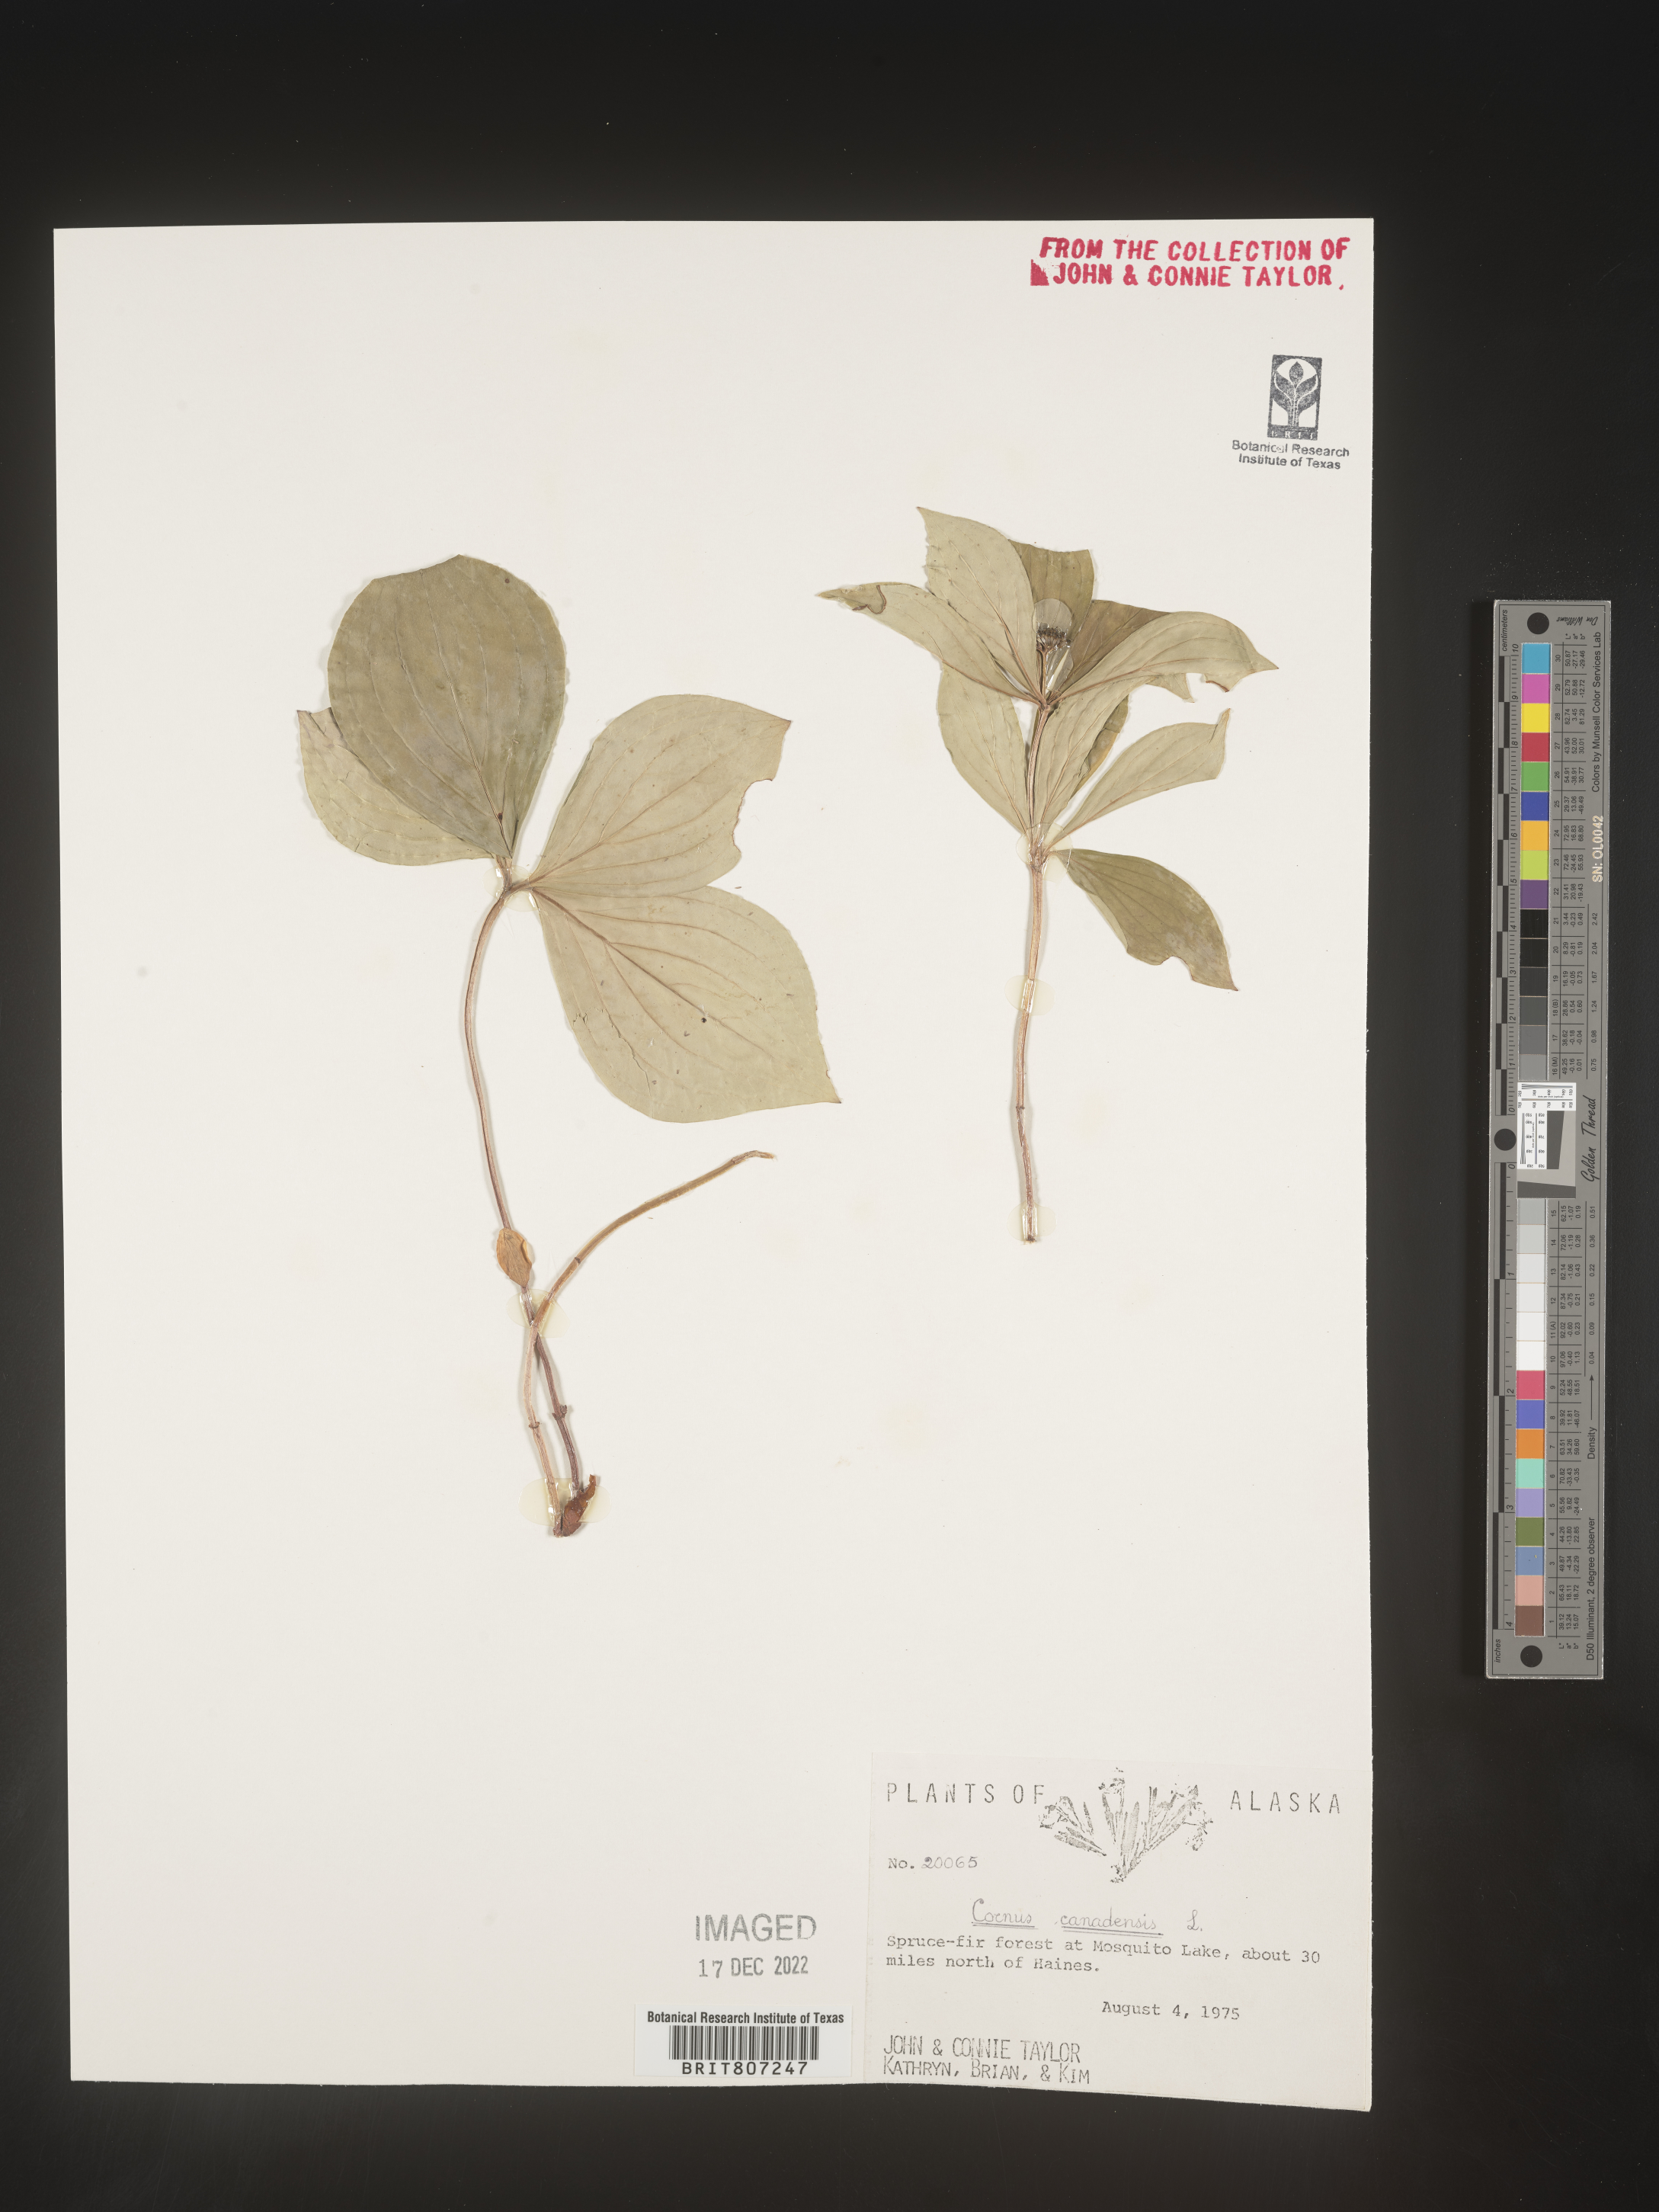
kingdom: Plantae
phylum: Tracheophyta
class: Magnoliopsida
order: Cornales
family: Cornaceae
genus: Cornus
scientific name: Cornus canadensis
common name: Creeping dogwood
